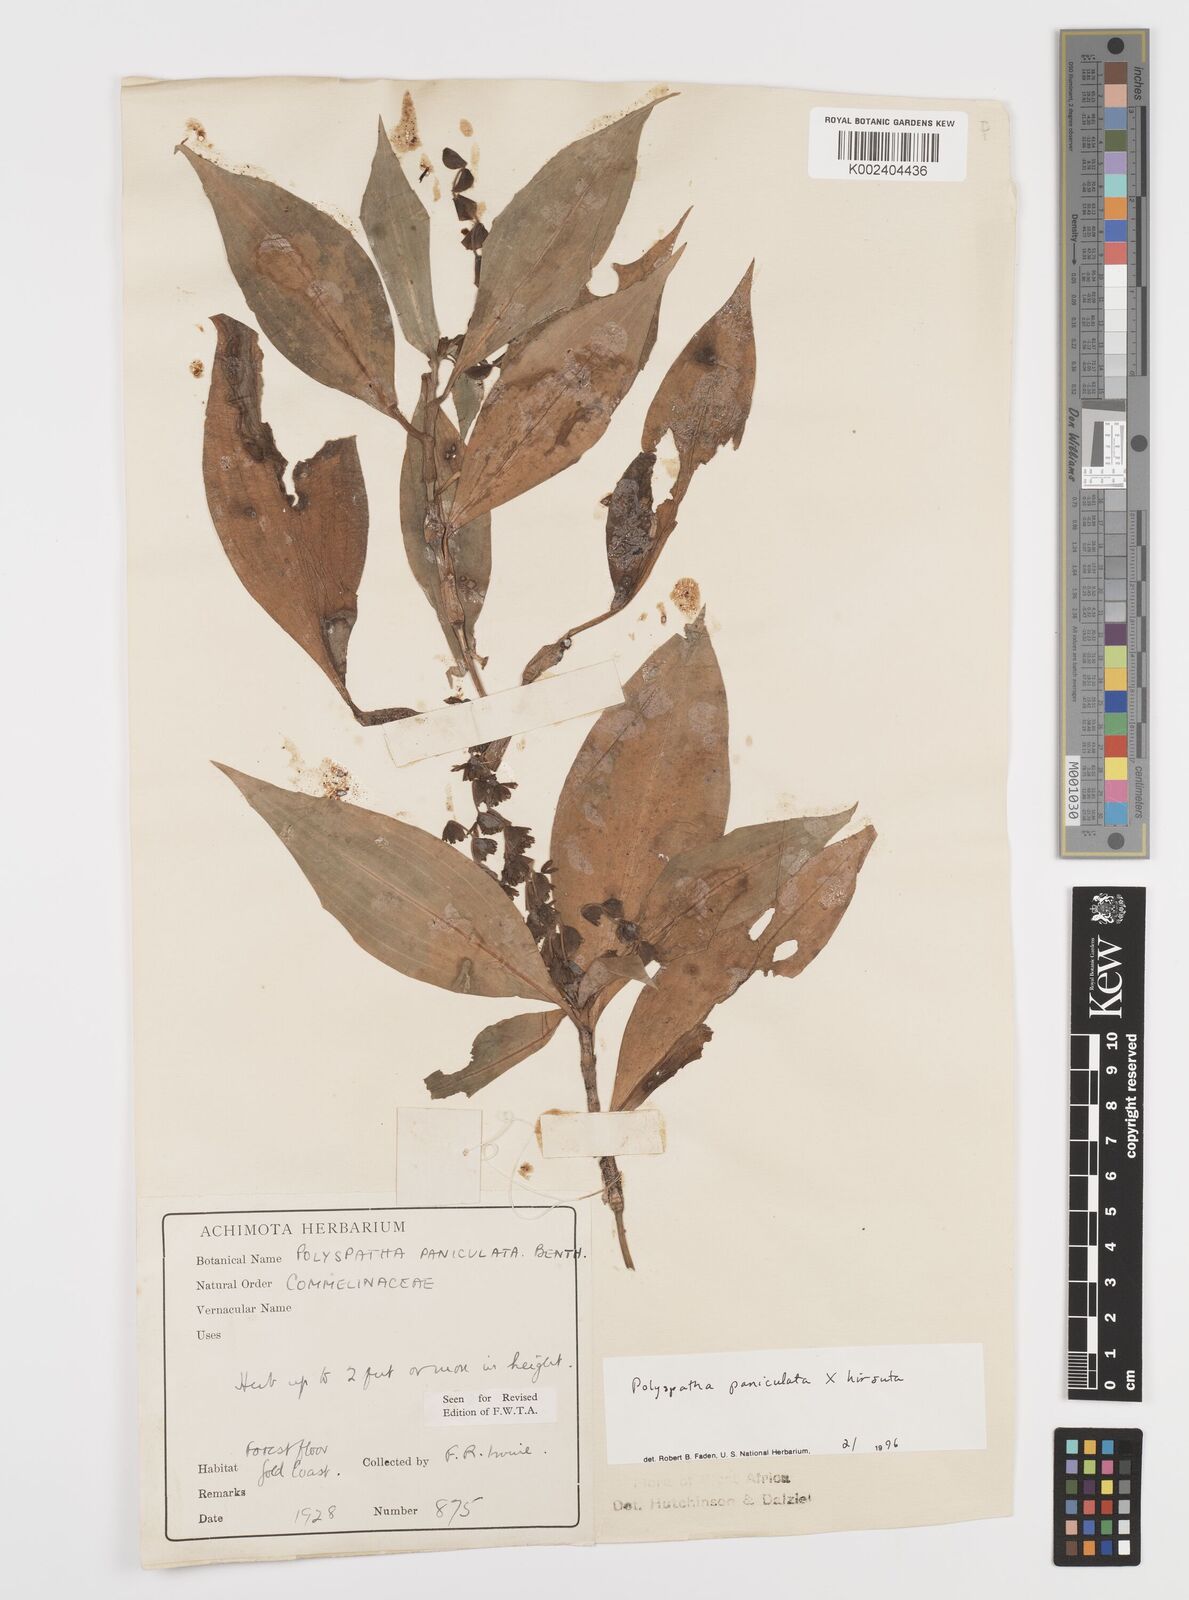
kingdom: Plantae
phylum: Tracheophyta
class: Liliopsida
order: Commelinales
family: Commelinaceae
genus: Polyspatha
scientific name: Polyspatha
